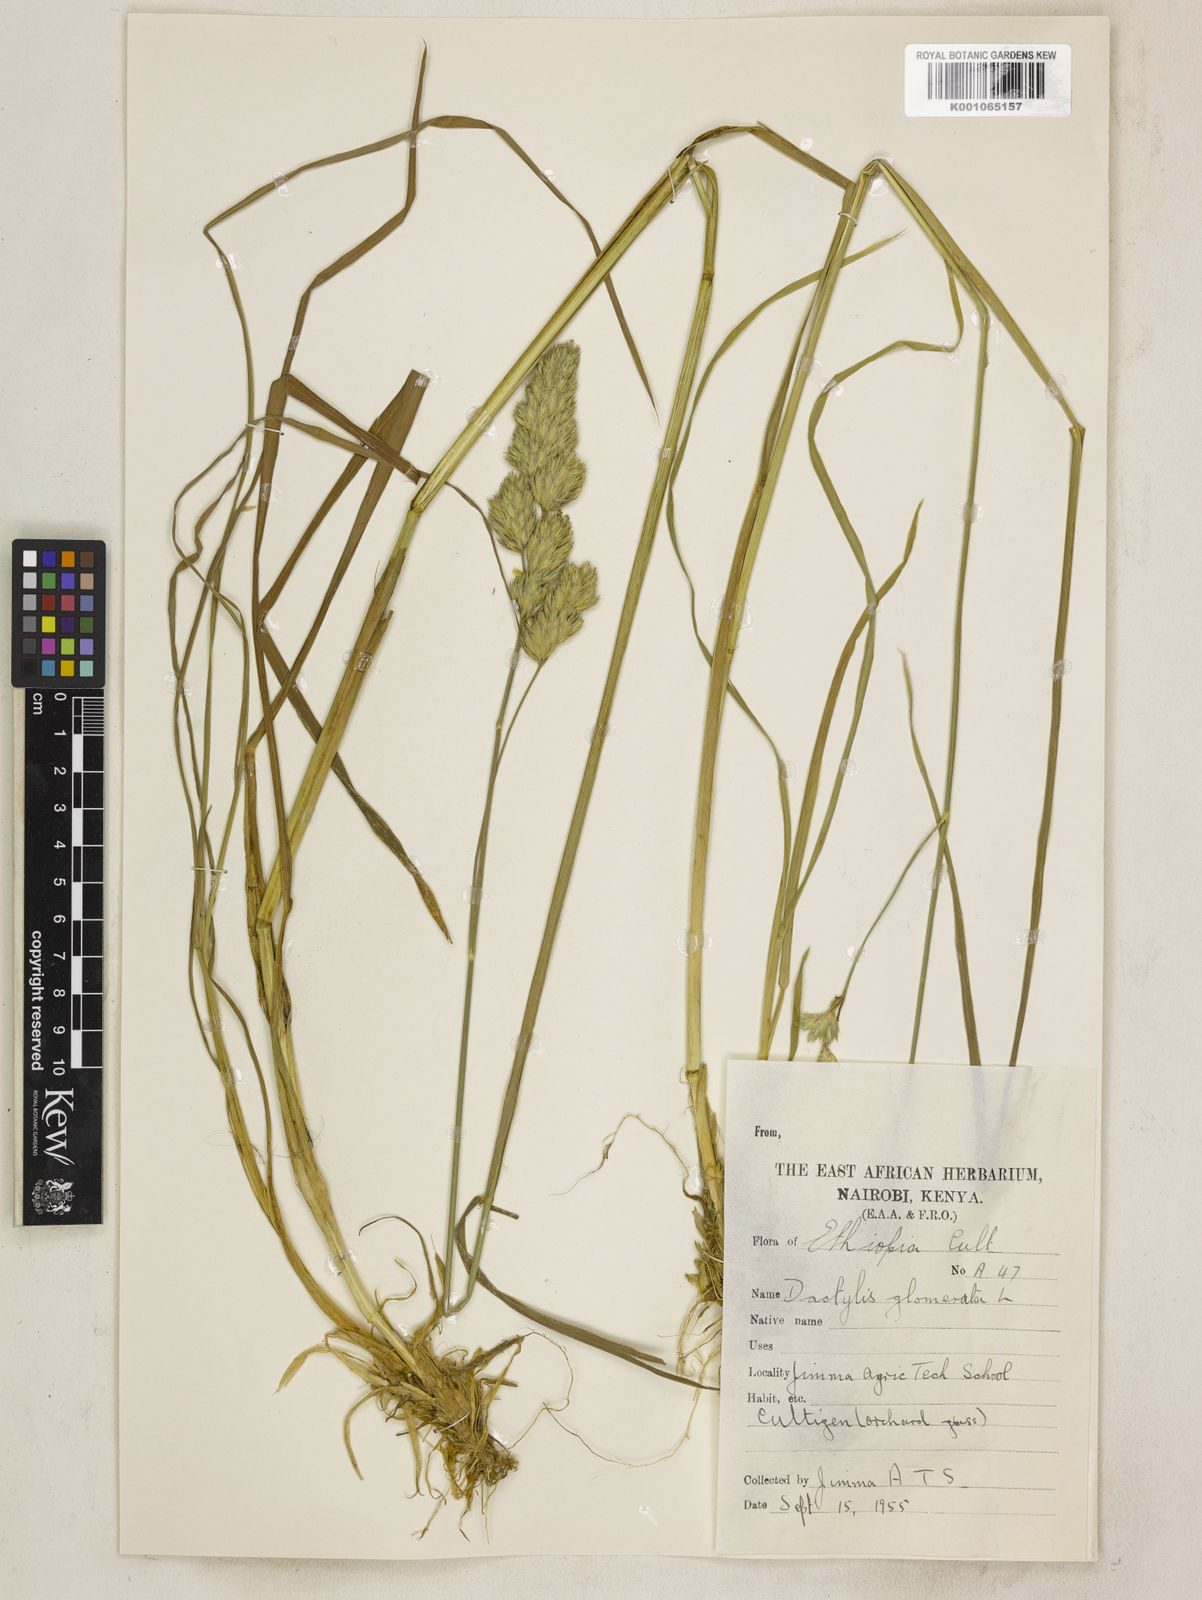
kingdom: Plantae
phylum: Tracheophyta
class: Liliopsida
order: Poales
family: Poaceae
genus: Dactylis
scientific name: Dactylis glomerata
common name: Orchardgrass
